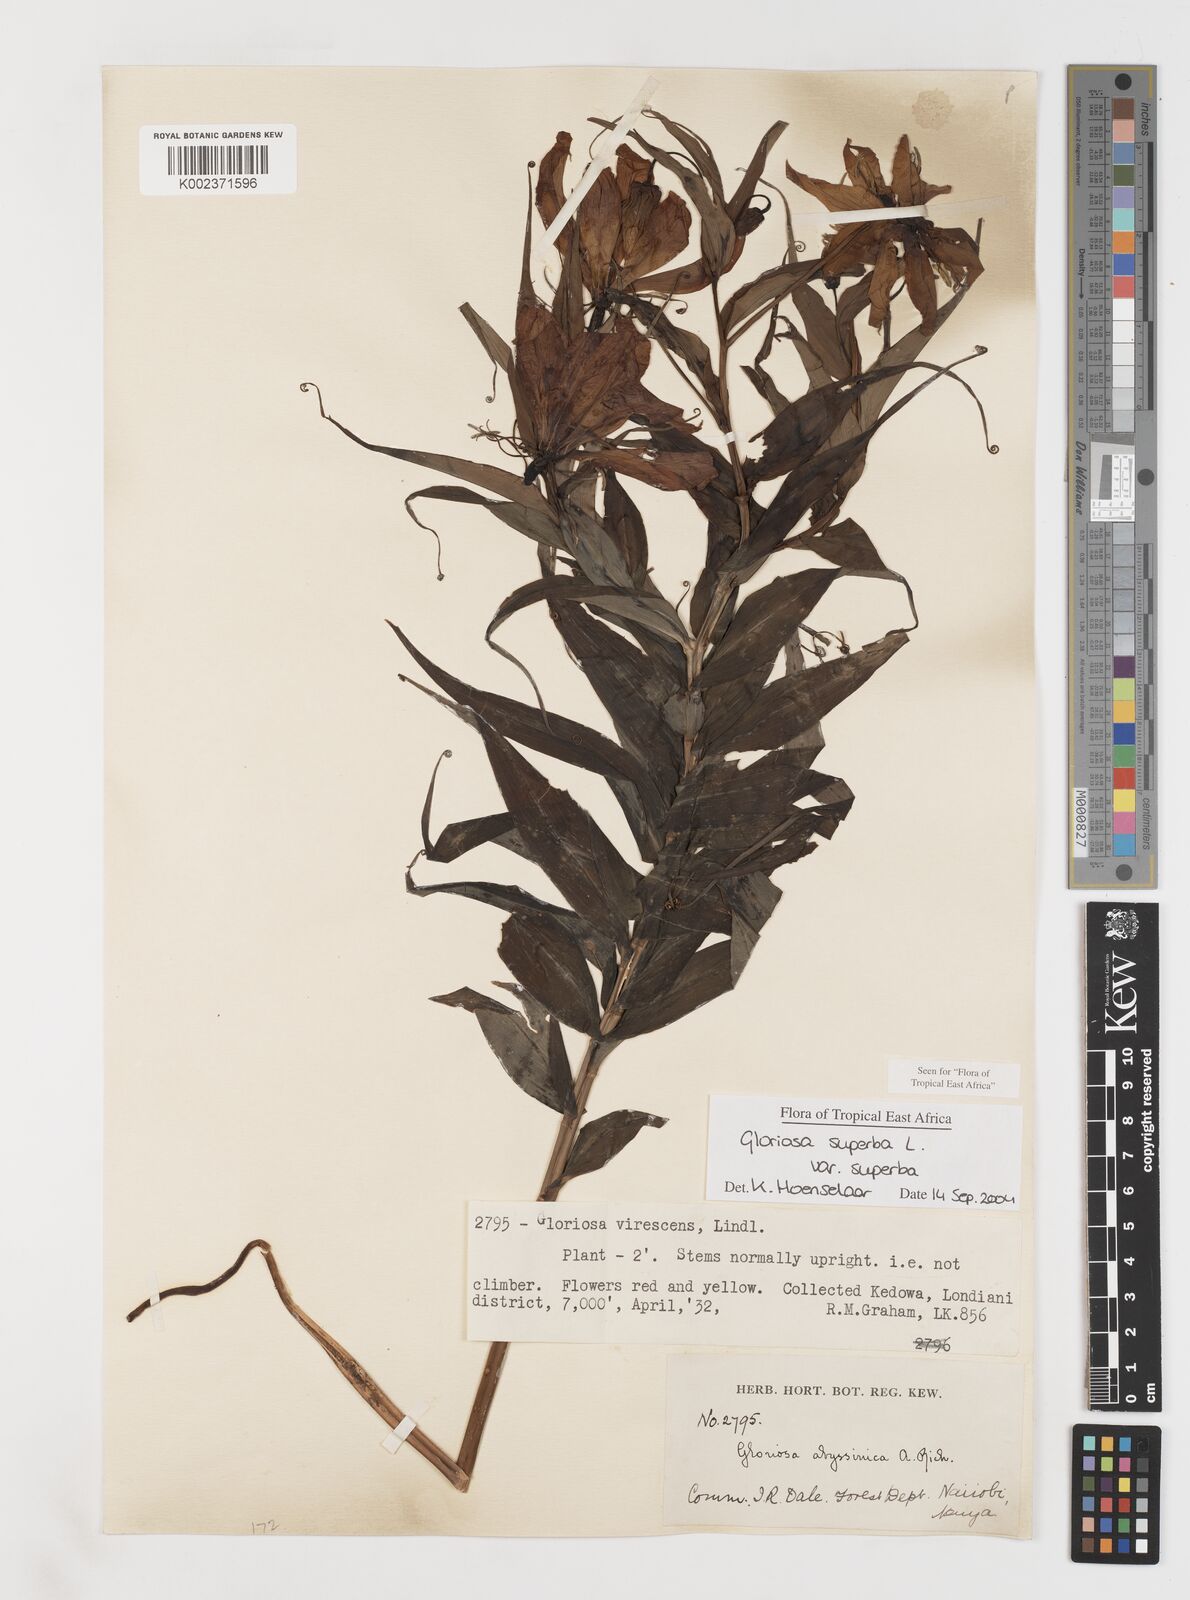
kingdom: Plantae
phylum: Tracheophyta
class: Liliopsida
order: Liliales
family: Colchicaceae
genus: Gloriosa
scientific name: Gloriosa simplex
